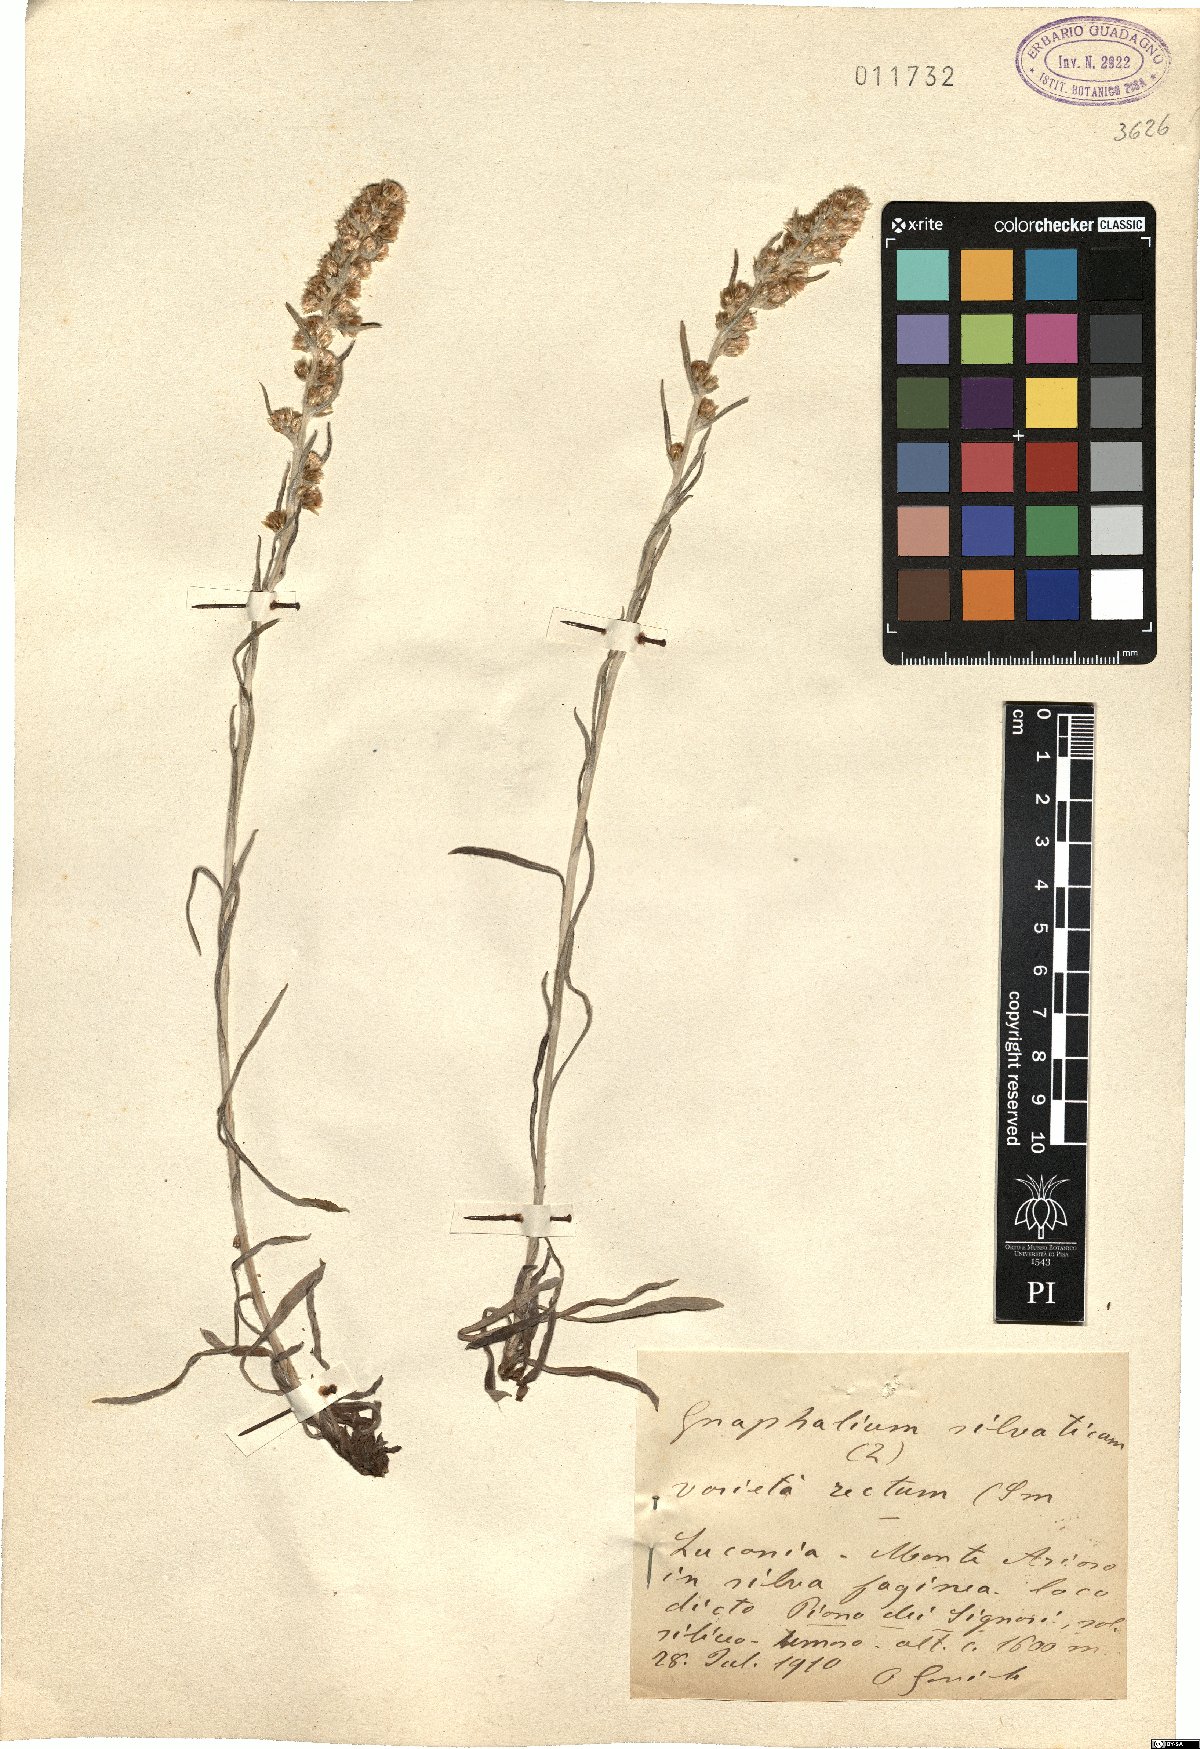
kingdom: Plantae
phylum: Tracheophyta
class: Magnoliopsida
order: Asterales
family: Asteraceae
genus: Omalotheca
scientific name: Omalotheca sylvatica
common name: Heath cudweed
